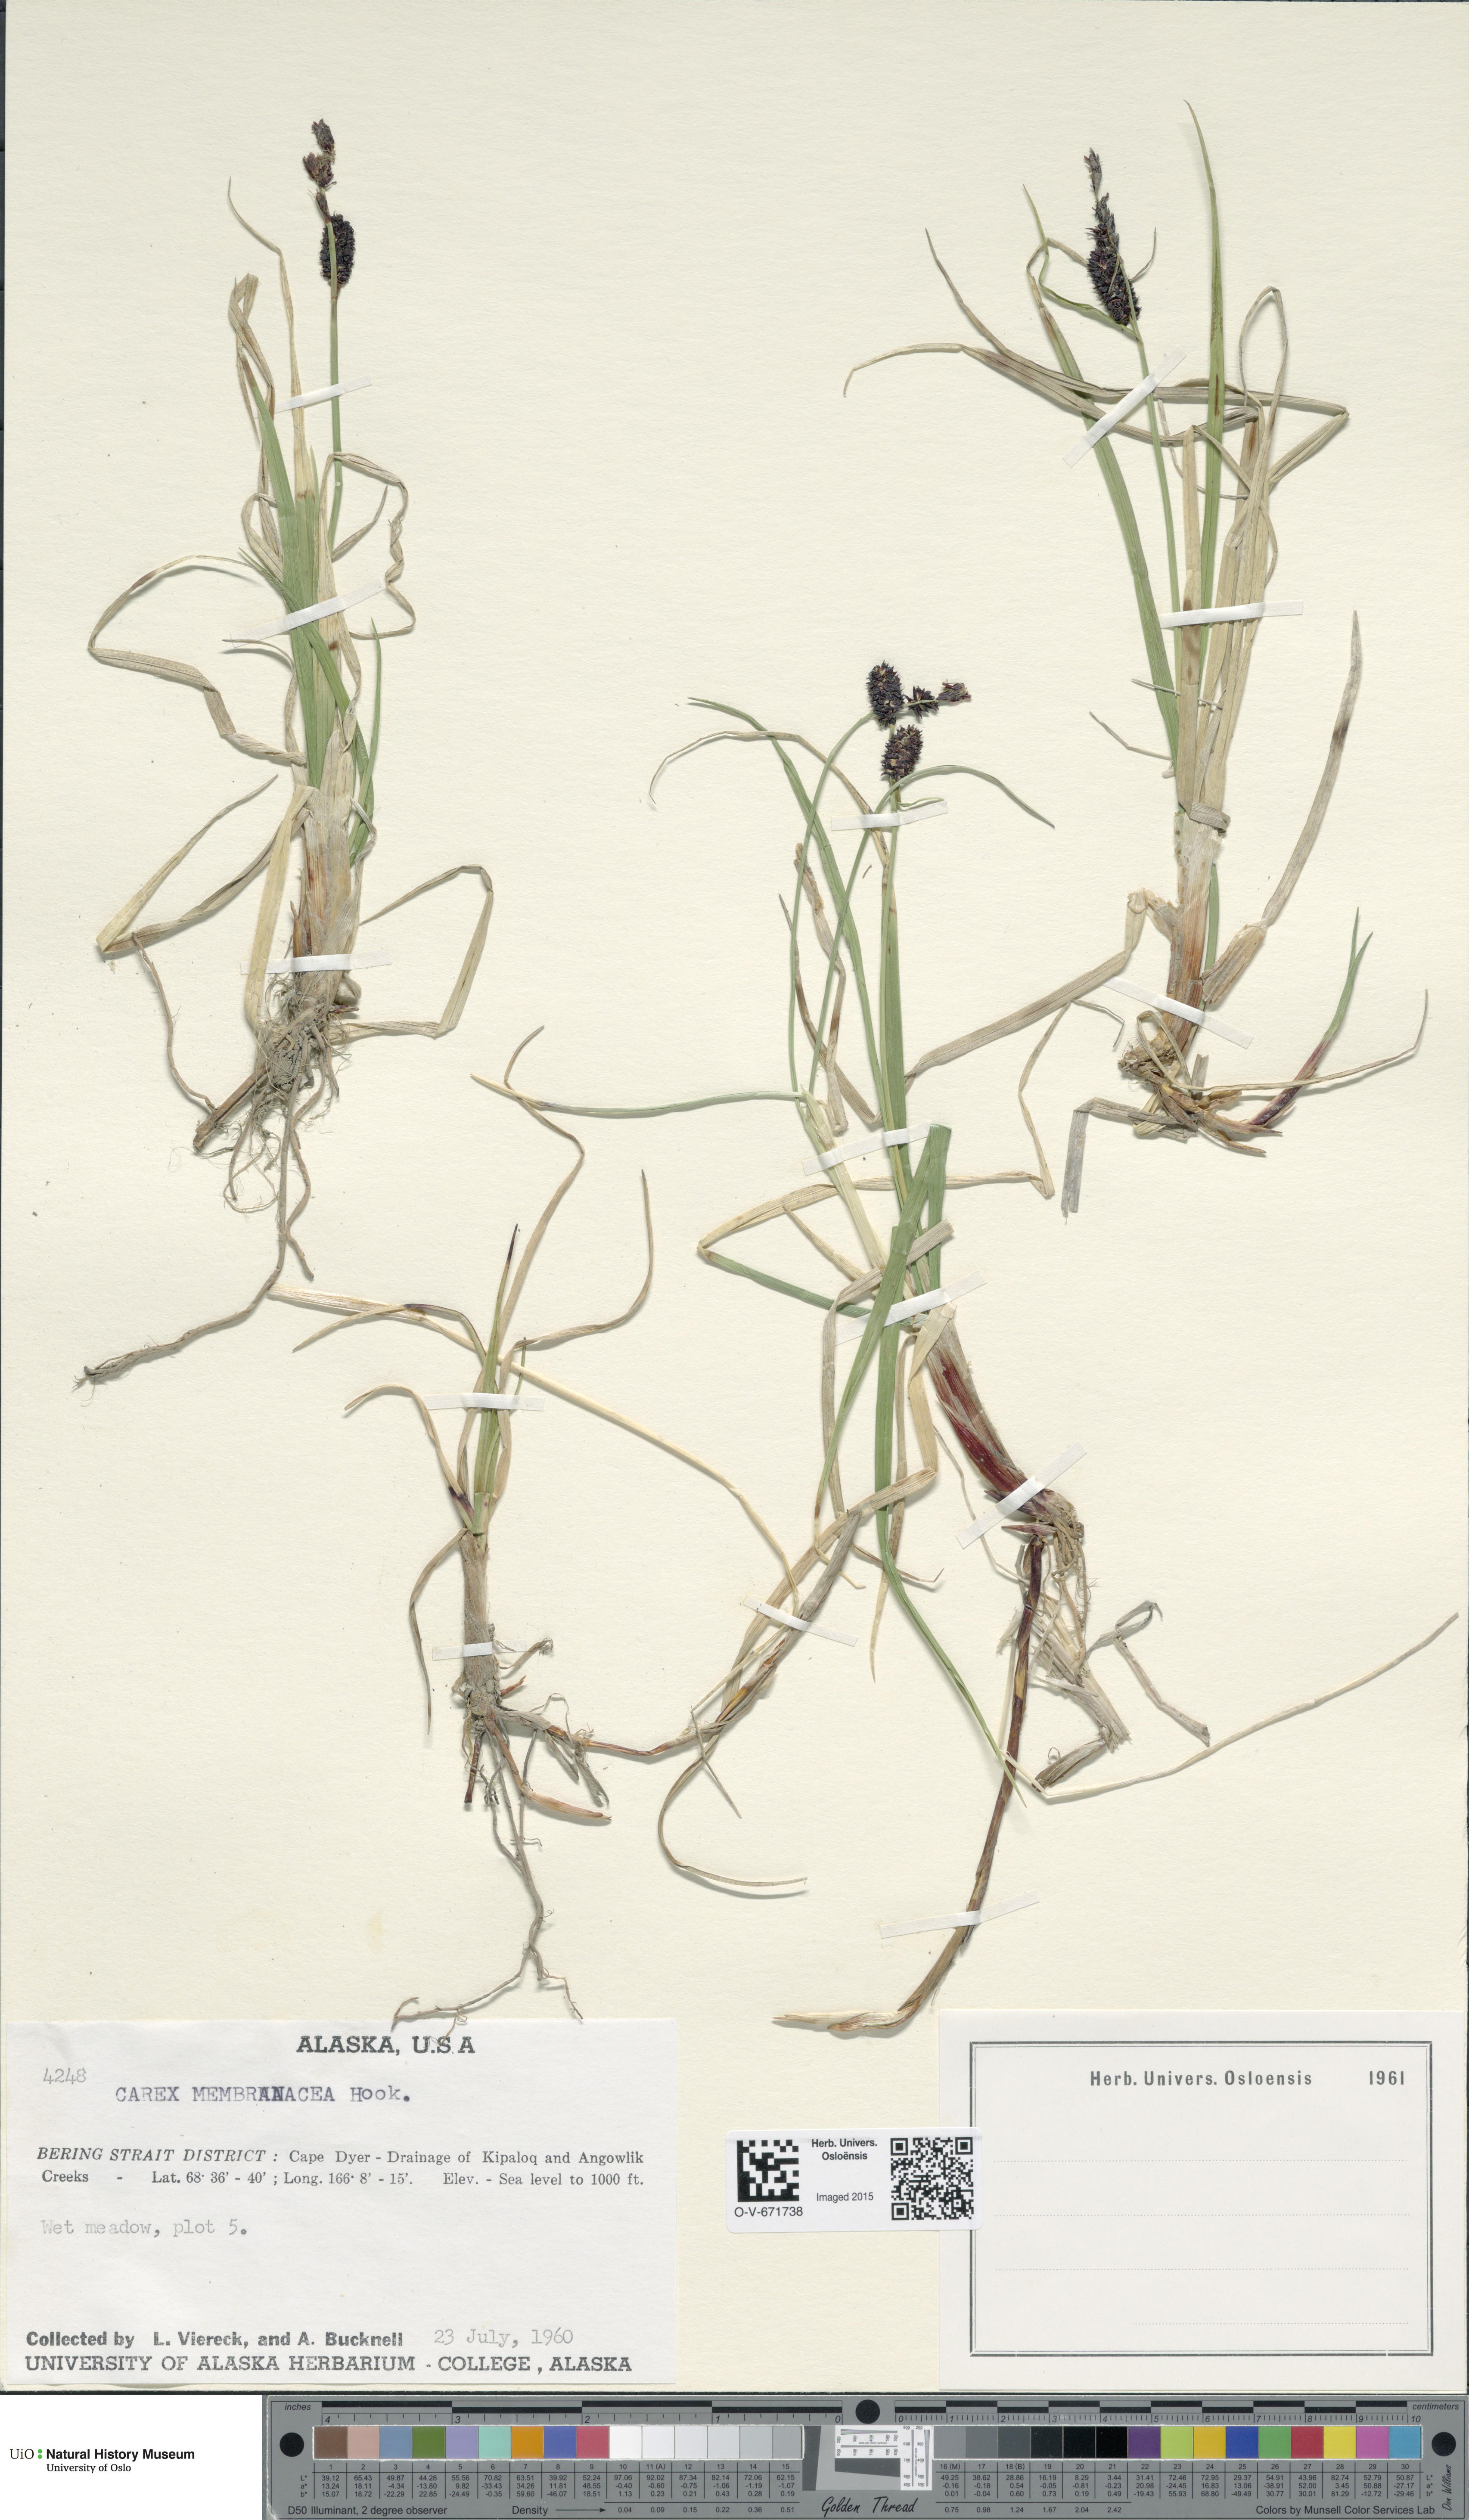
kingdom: Plantae
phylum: Tracheophyta
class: Liliopsida
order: Poales
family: Cyperaceae
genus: Carex
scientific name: Carex membranacea
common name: Fragile sedge
